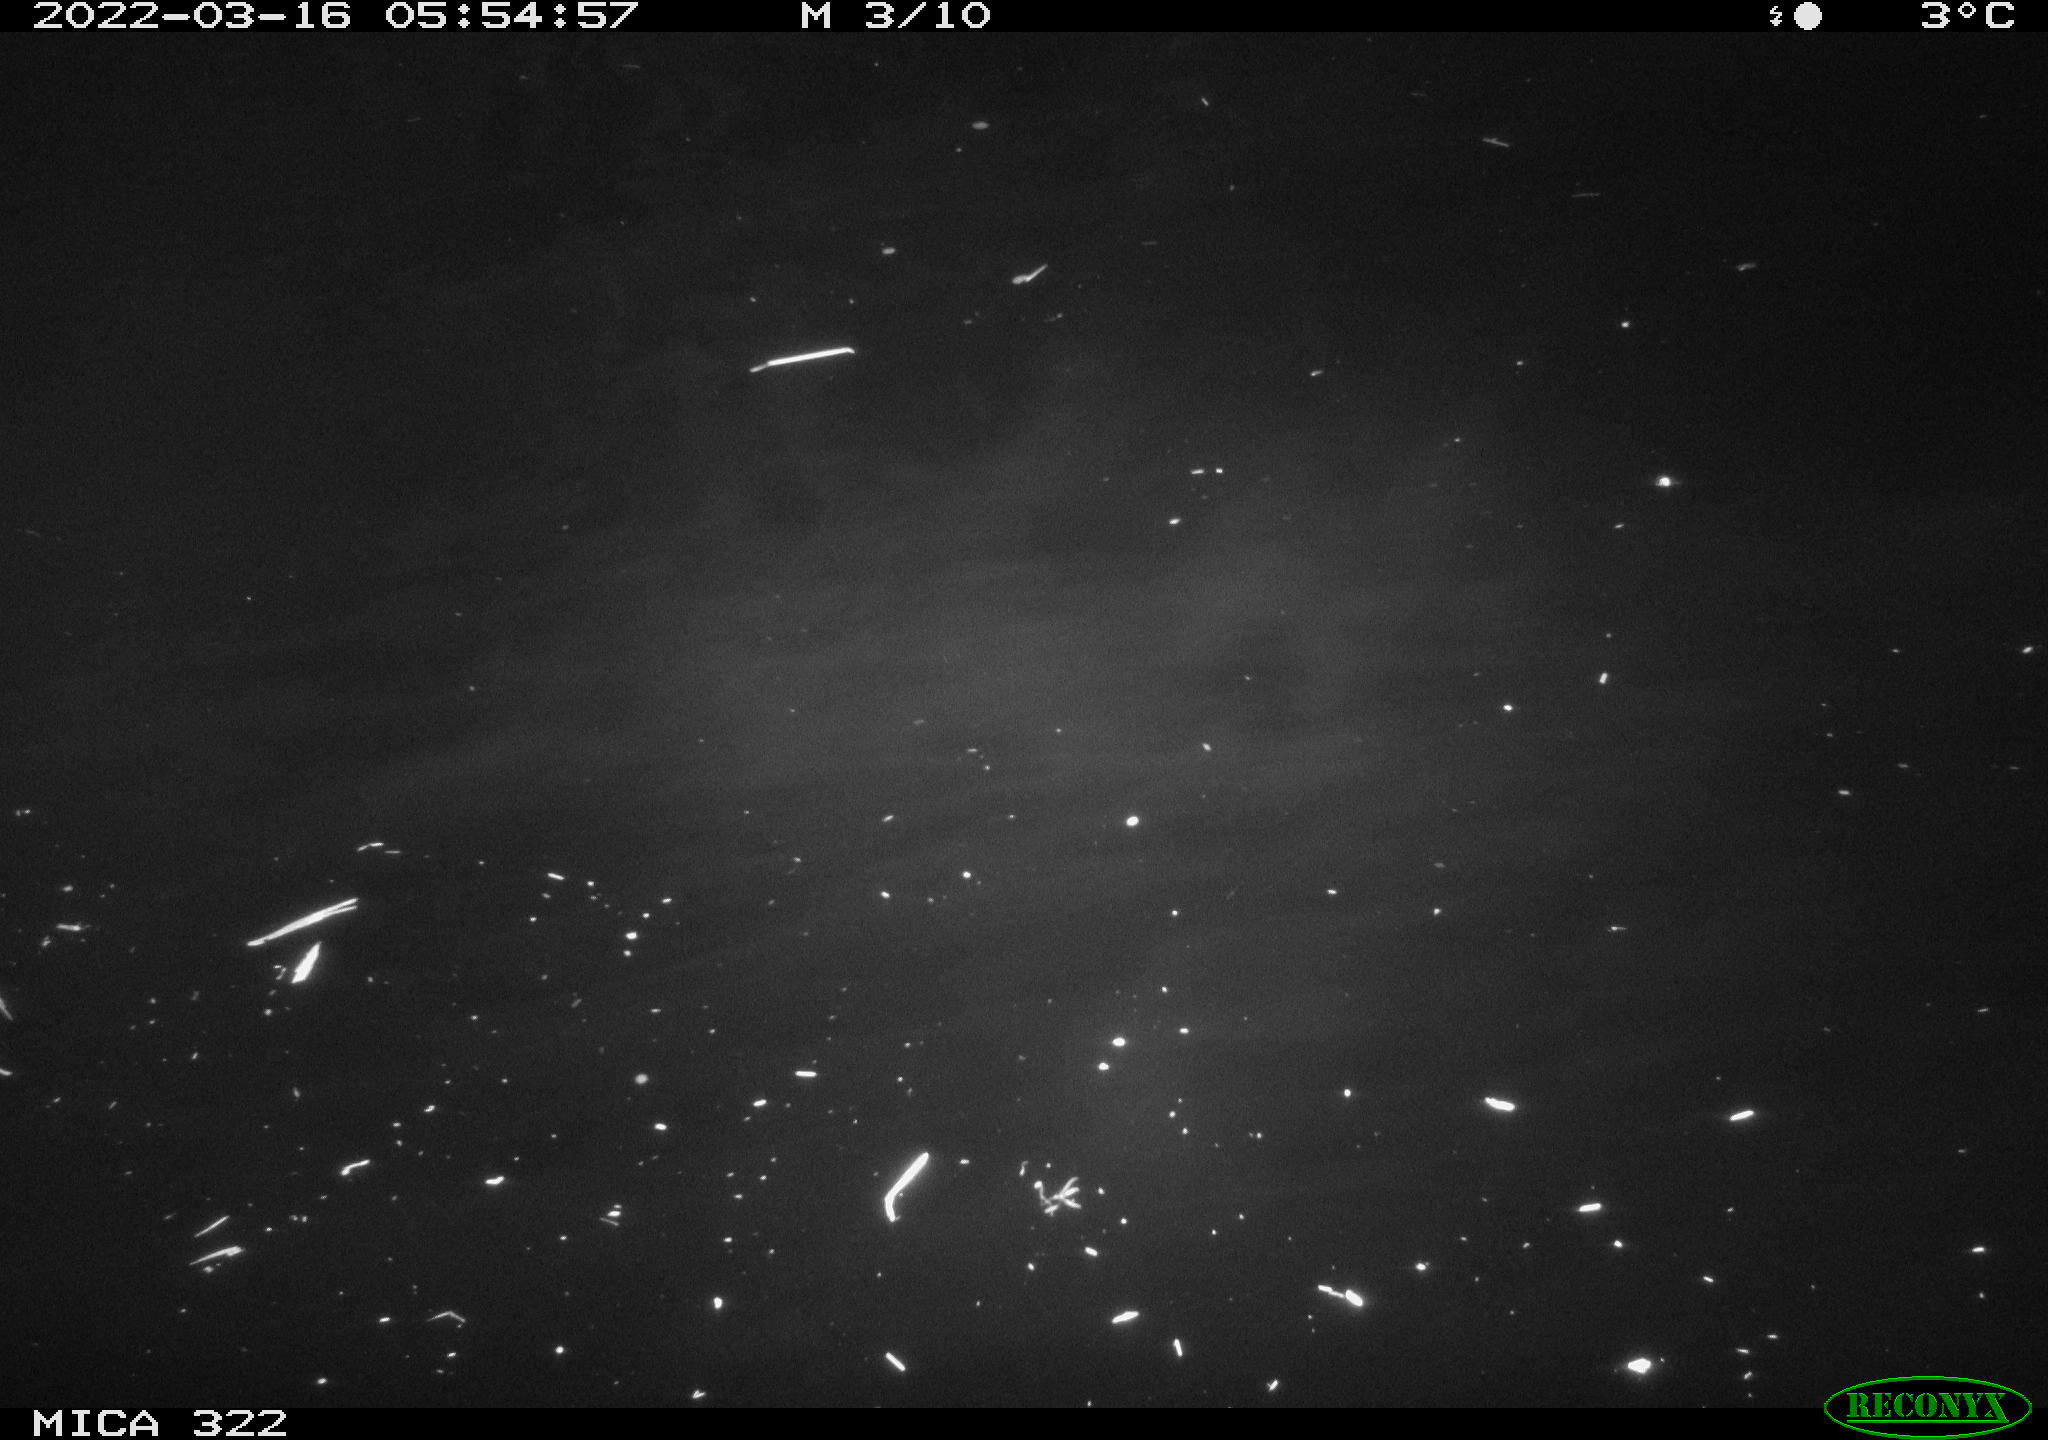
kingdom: Animalia
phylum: Chordata
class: Aves
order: Anseriformes
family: Anatidae
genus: Anas
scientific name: Anas platyrhynchos
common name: Mallard
